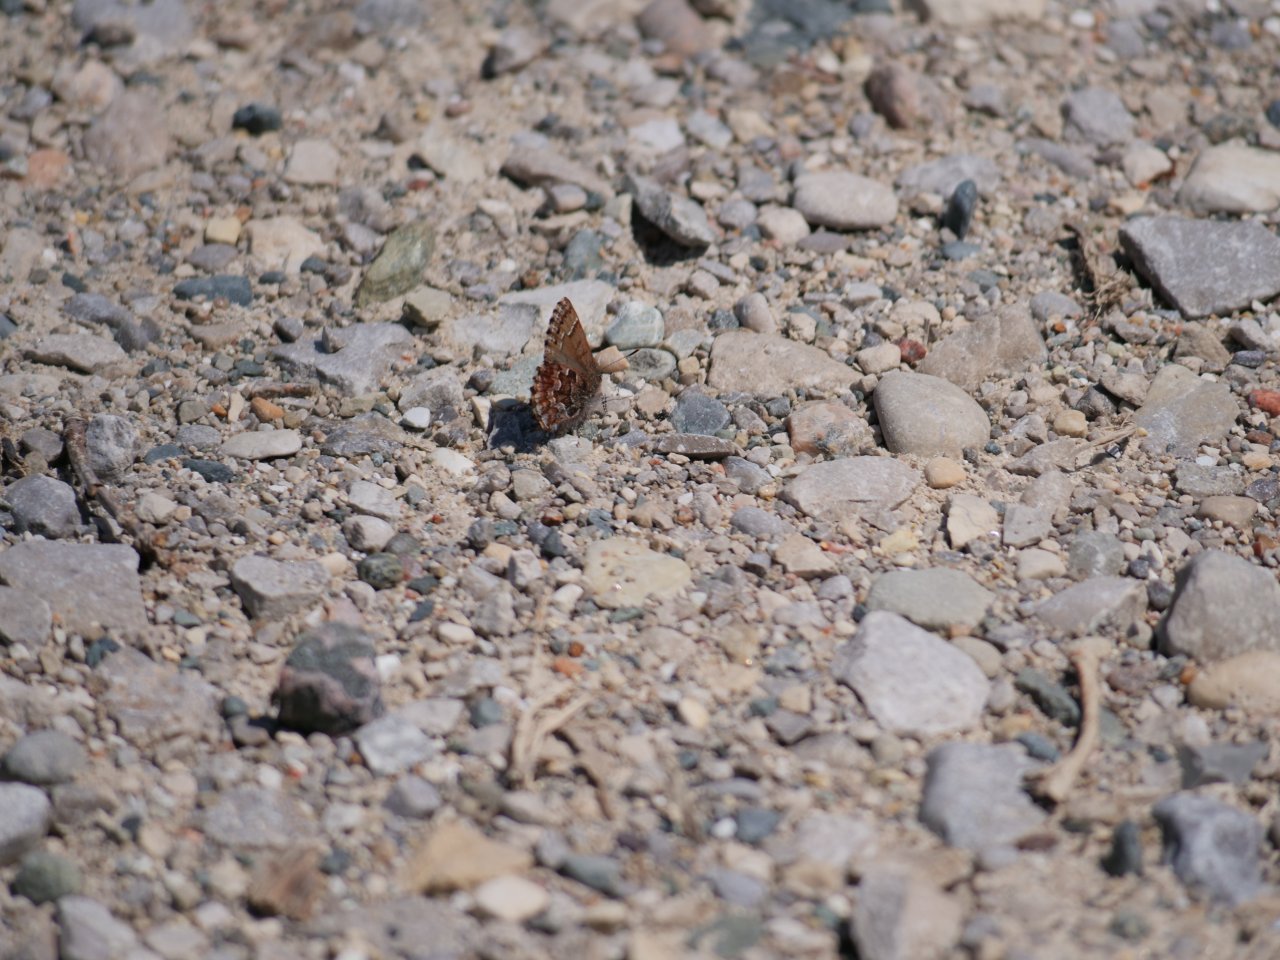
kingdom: Animalia
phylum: Arthropoda
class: Insecta
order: Lepidoptera
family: Lycaenidae
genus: Incisalia
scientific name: Incisalia niphon
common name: Eastern Pine Elfin
